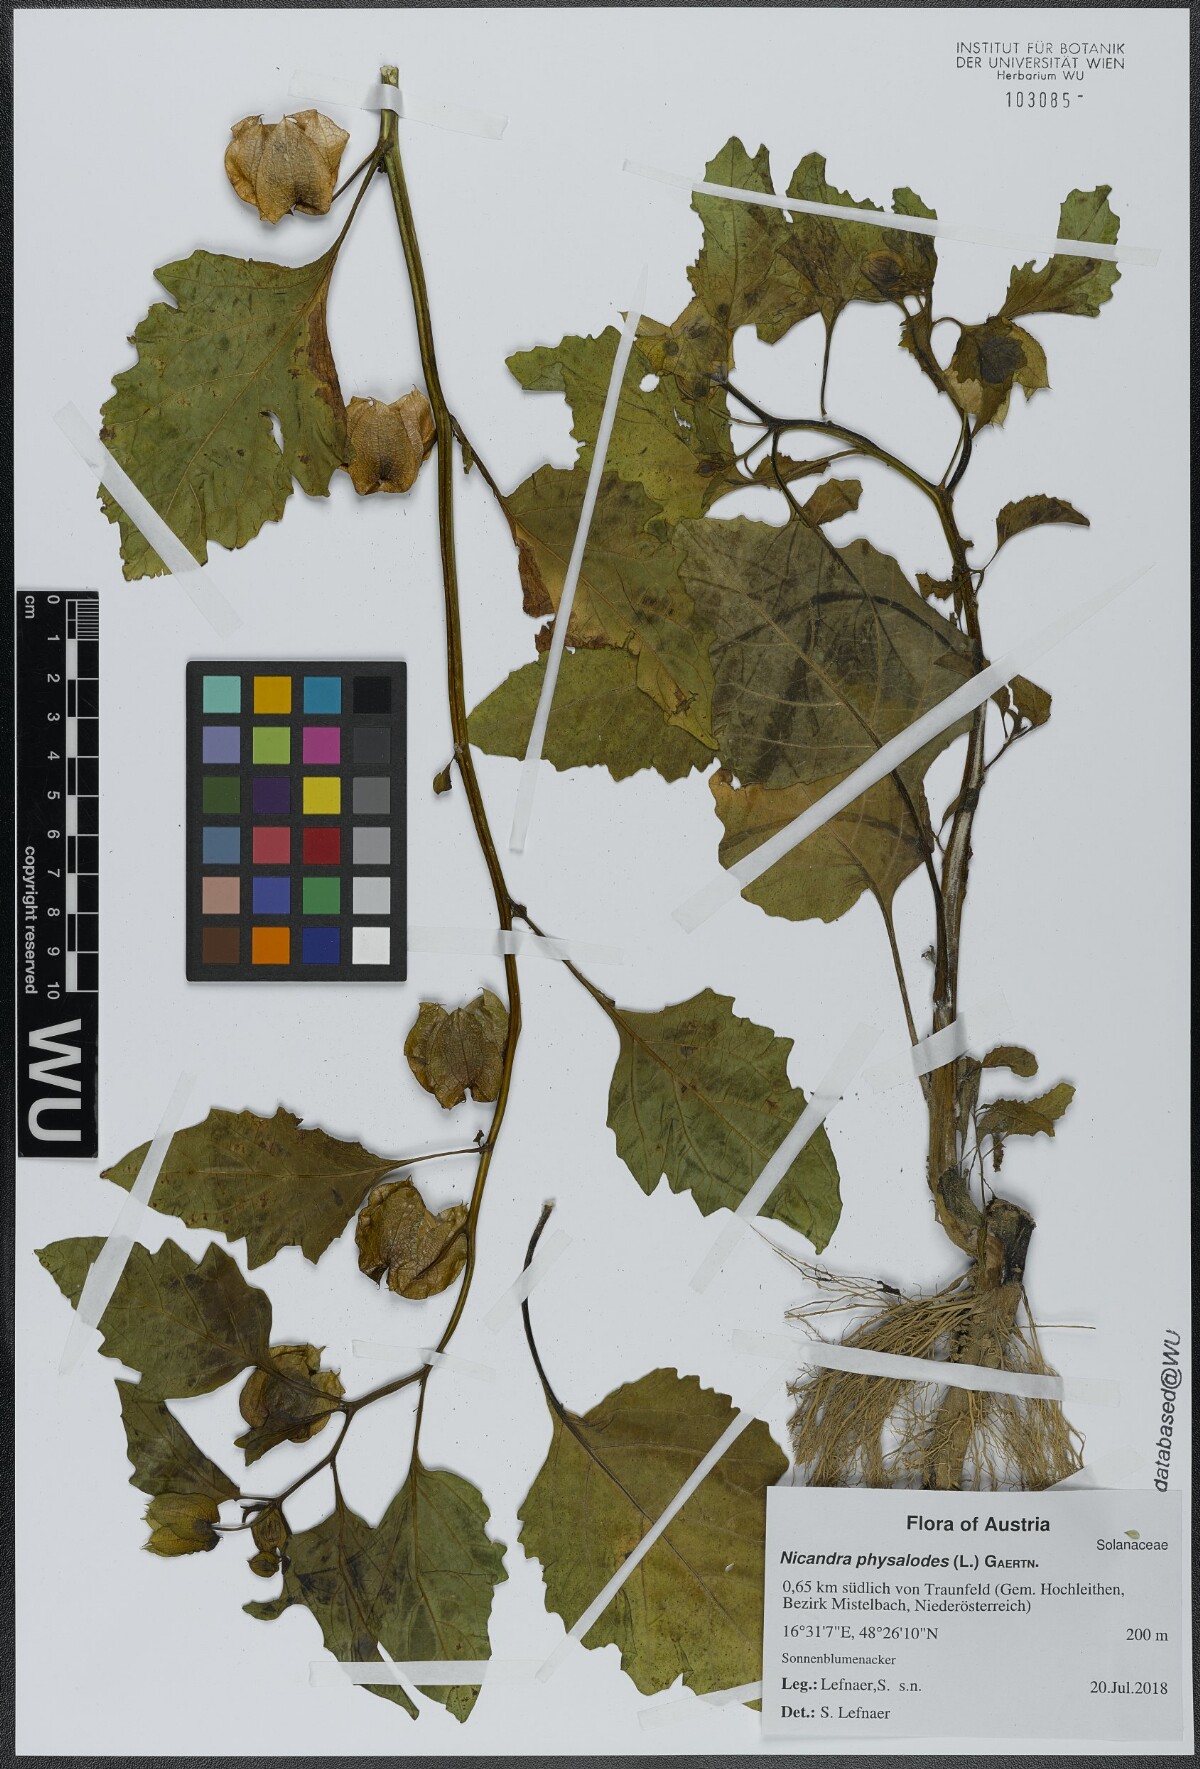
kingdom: Plantae
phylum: Tracheophyta
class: Magnoliopsida
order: Solanales
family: Solanaceae
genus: Nicandra
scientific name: Nicandra physalodes
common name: Apple-of-peru
